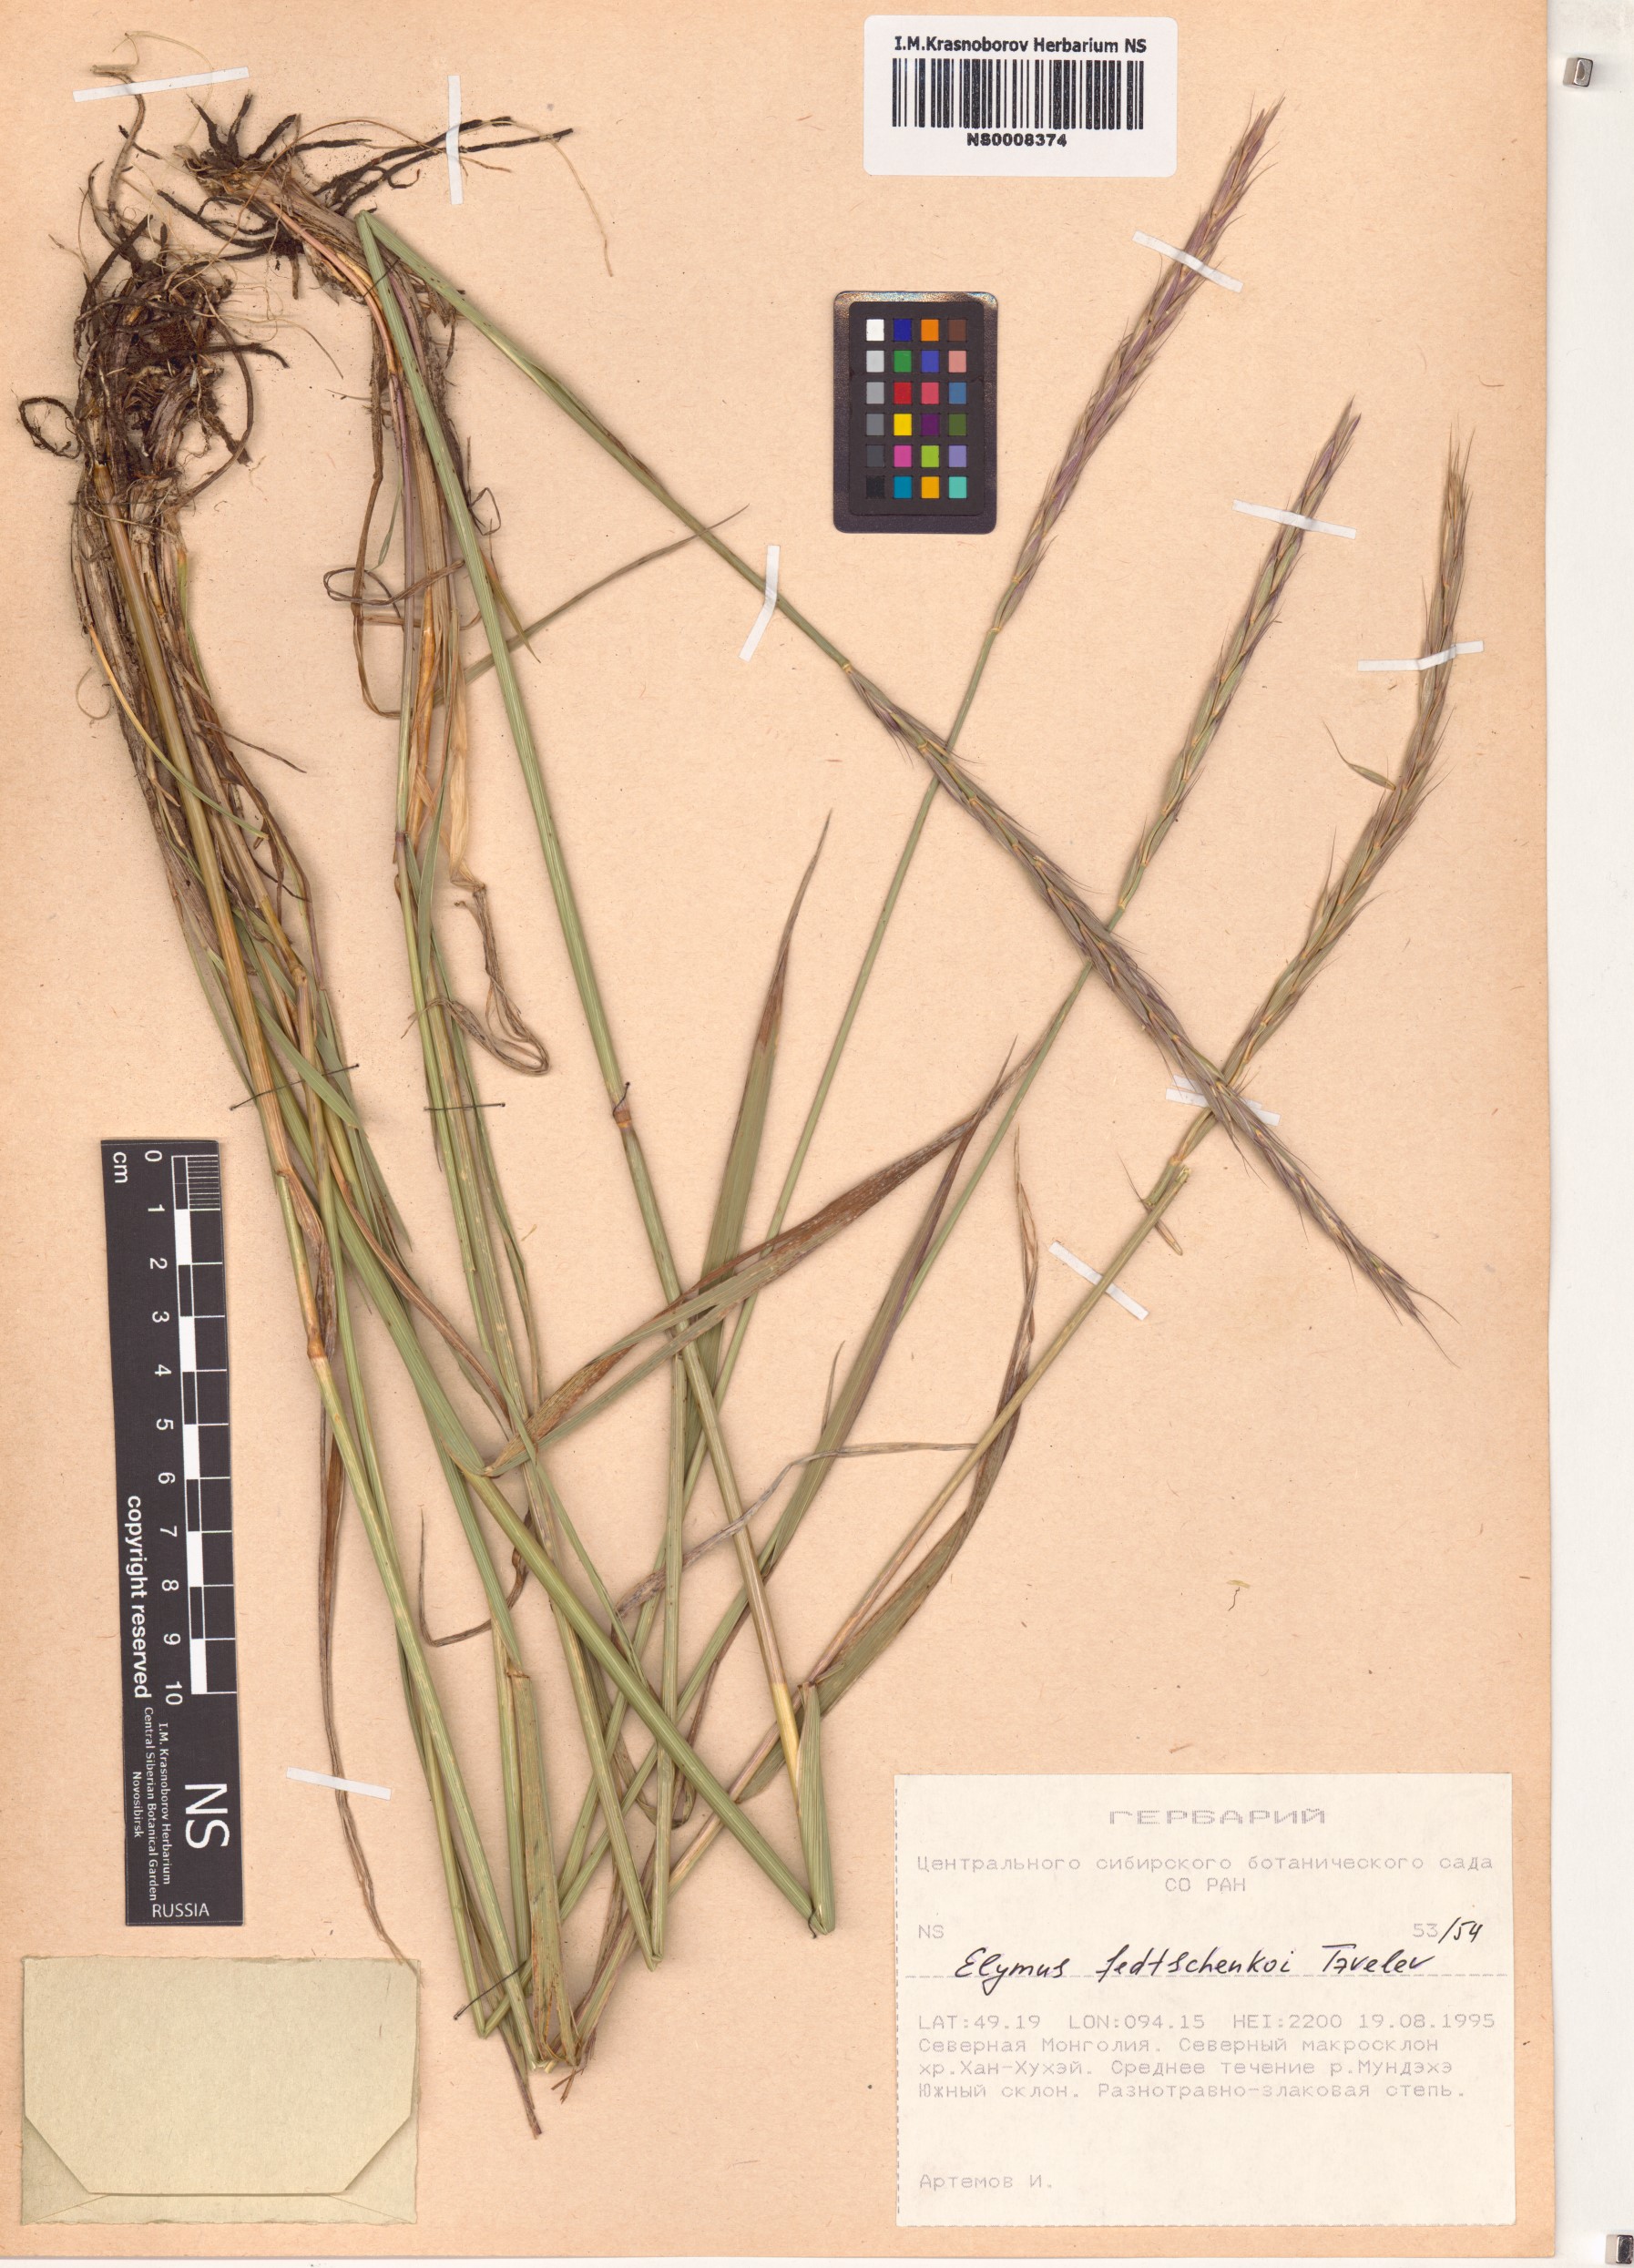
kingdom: Plantae
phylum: Tracheophyta
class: Liliopsida
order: Poales
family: Poaceae
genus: Elymus
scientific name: Elymus fedtschenkoi
